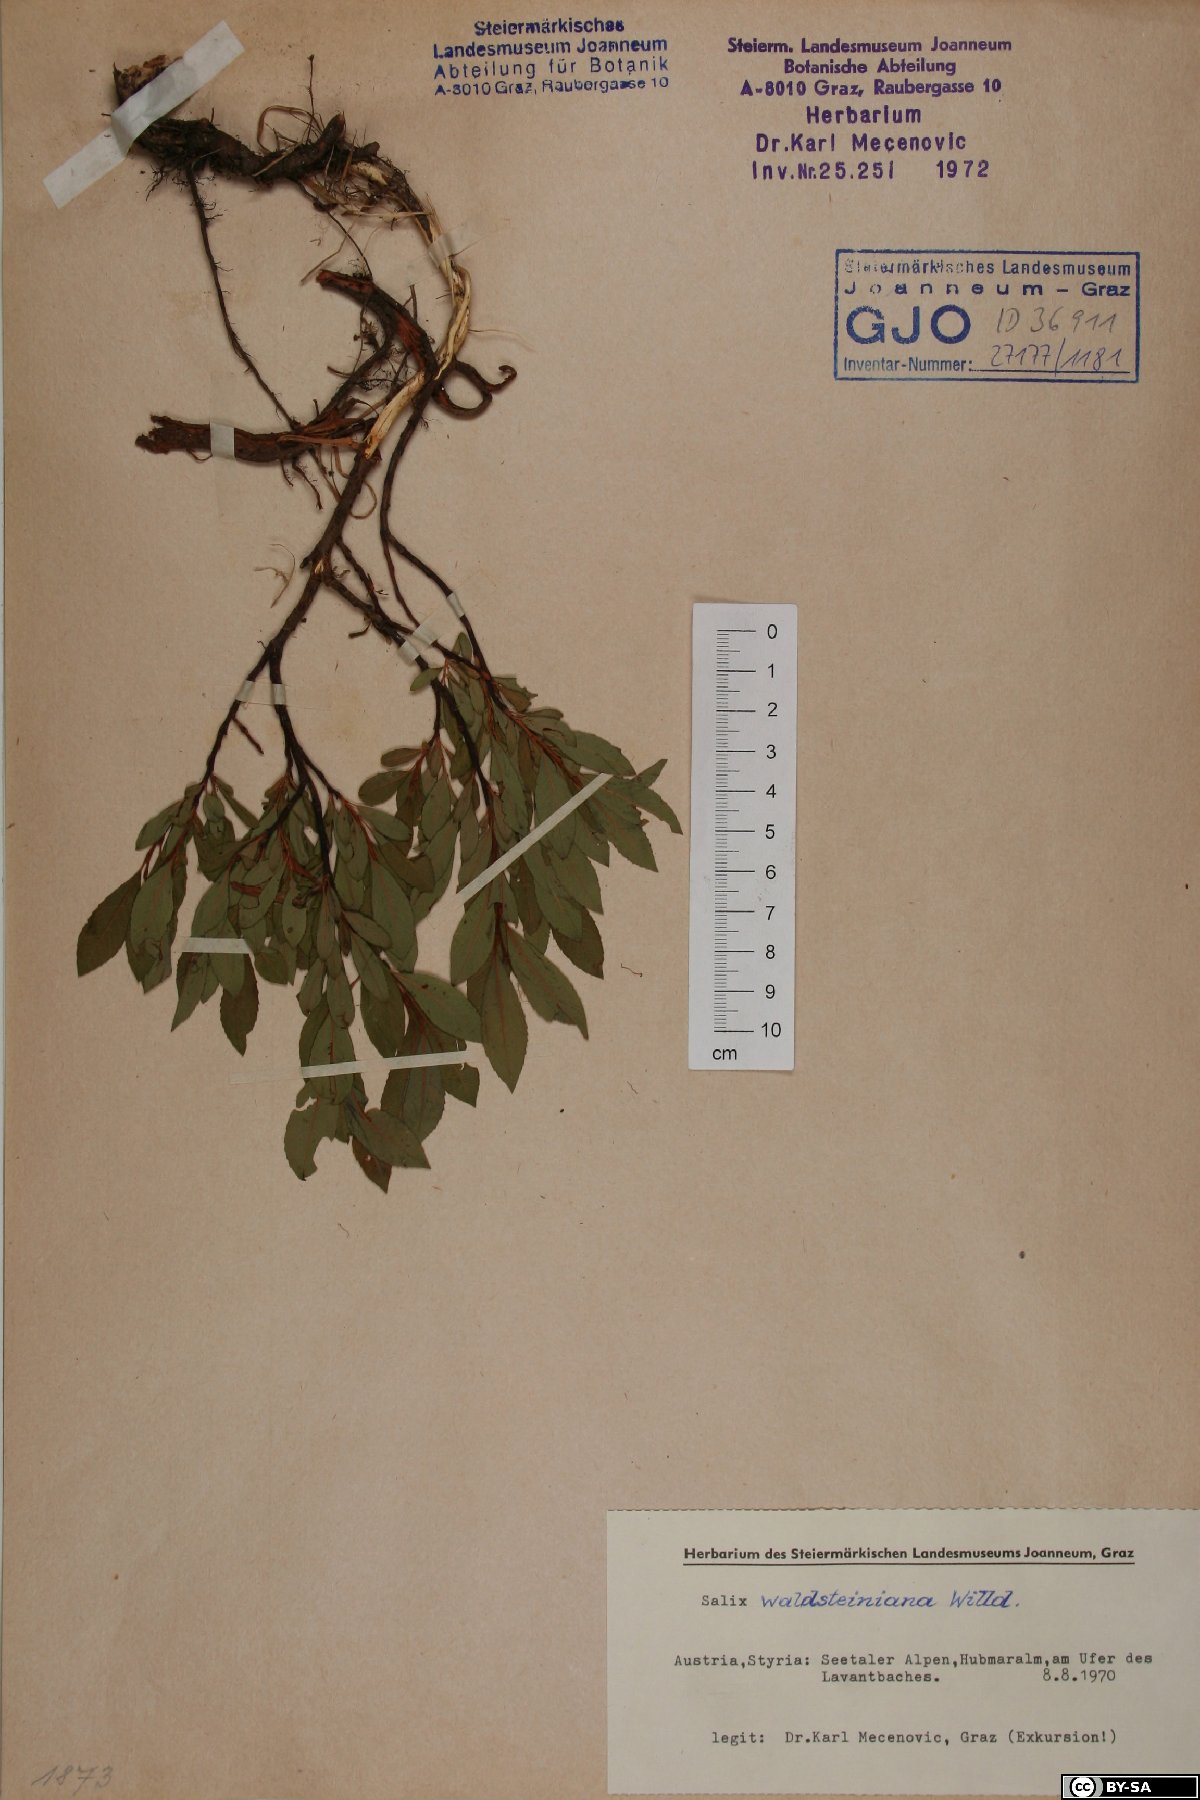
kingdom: Plantae
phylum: Tracheophyta
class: Magnoliopsida
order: Malpighiales
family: Salicaceae
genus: Salix
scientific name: Salix waldsteiniana
